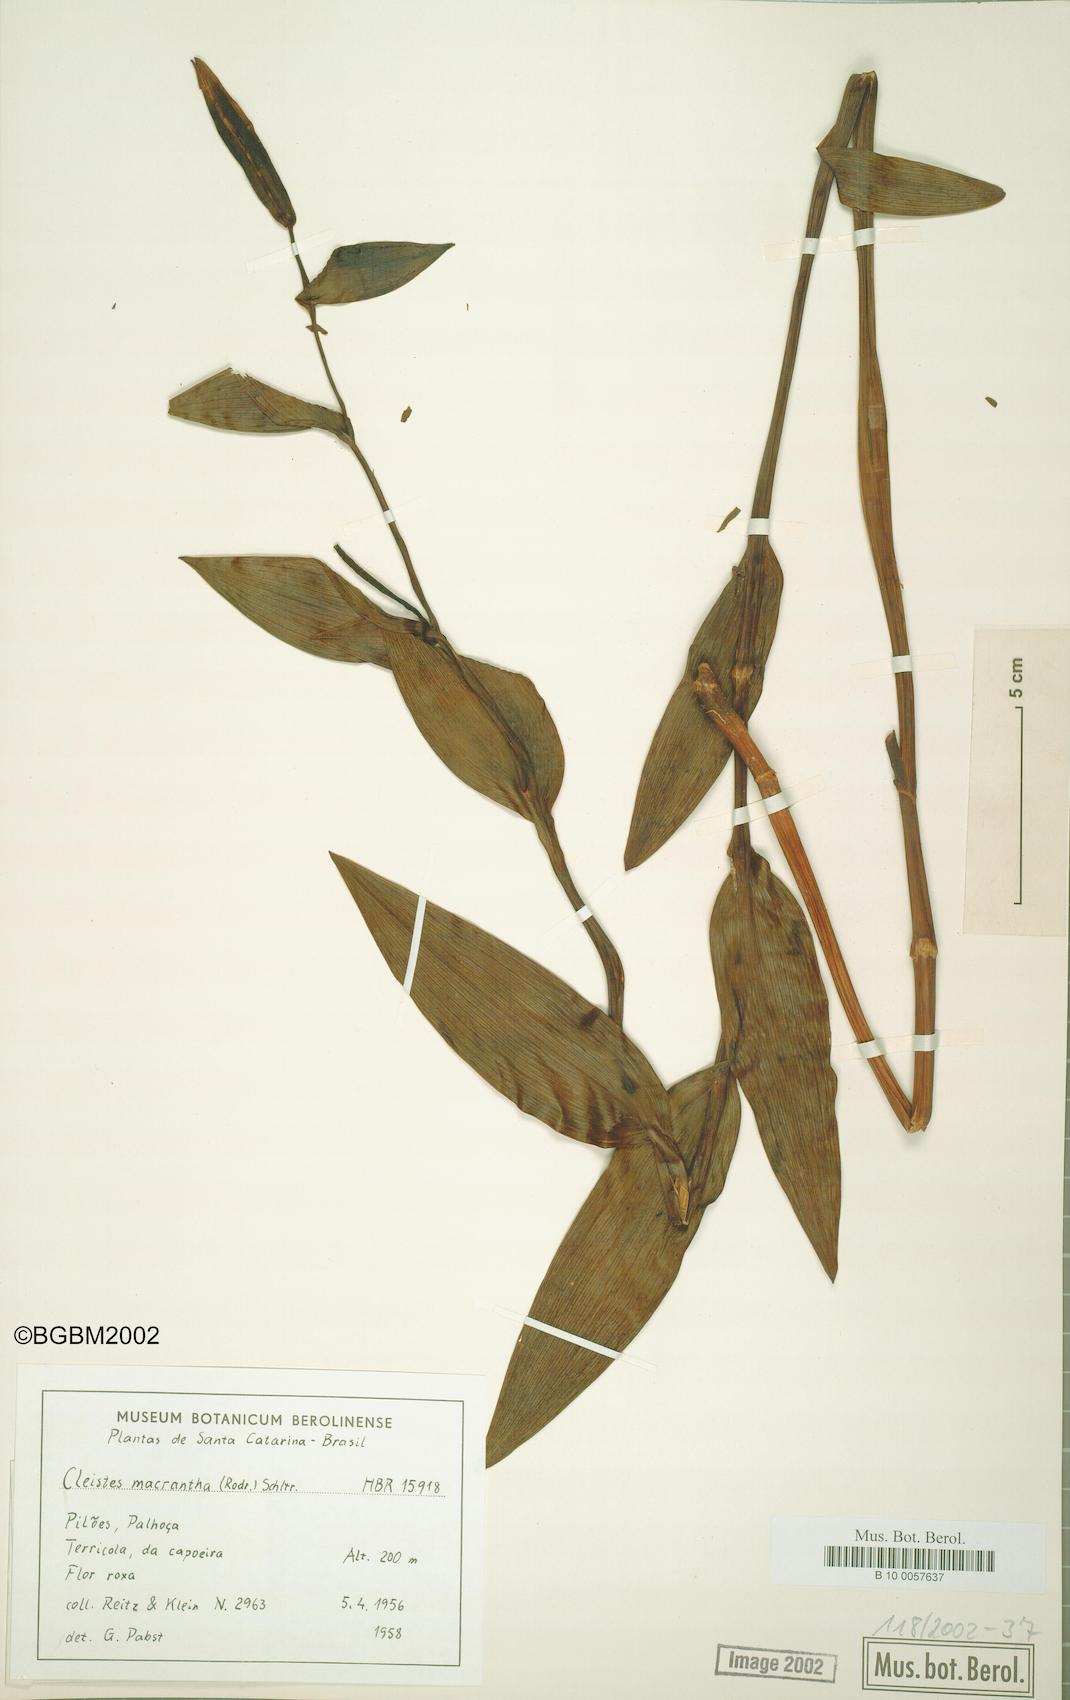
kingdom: Plantae
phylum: Tracheophyta
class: Liliopsida
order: Asparagales
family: Orchidaceae
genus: Cleistes
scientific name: Cleistes libonii
